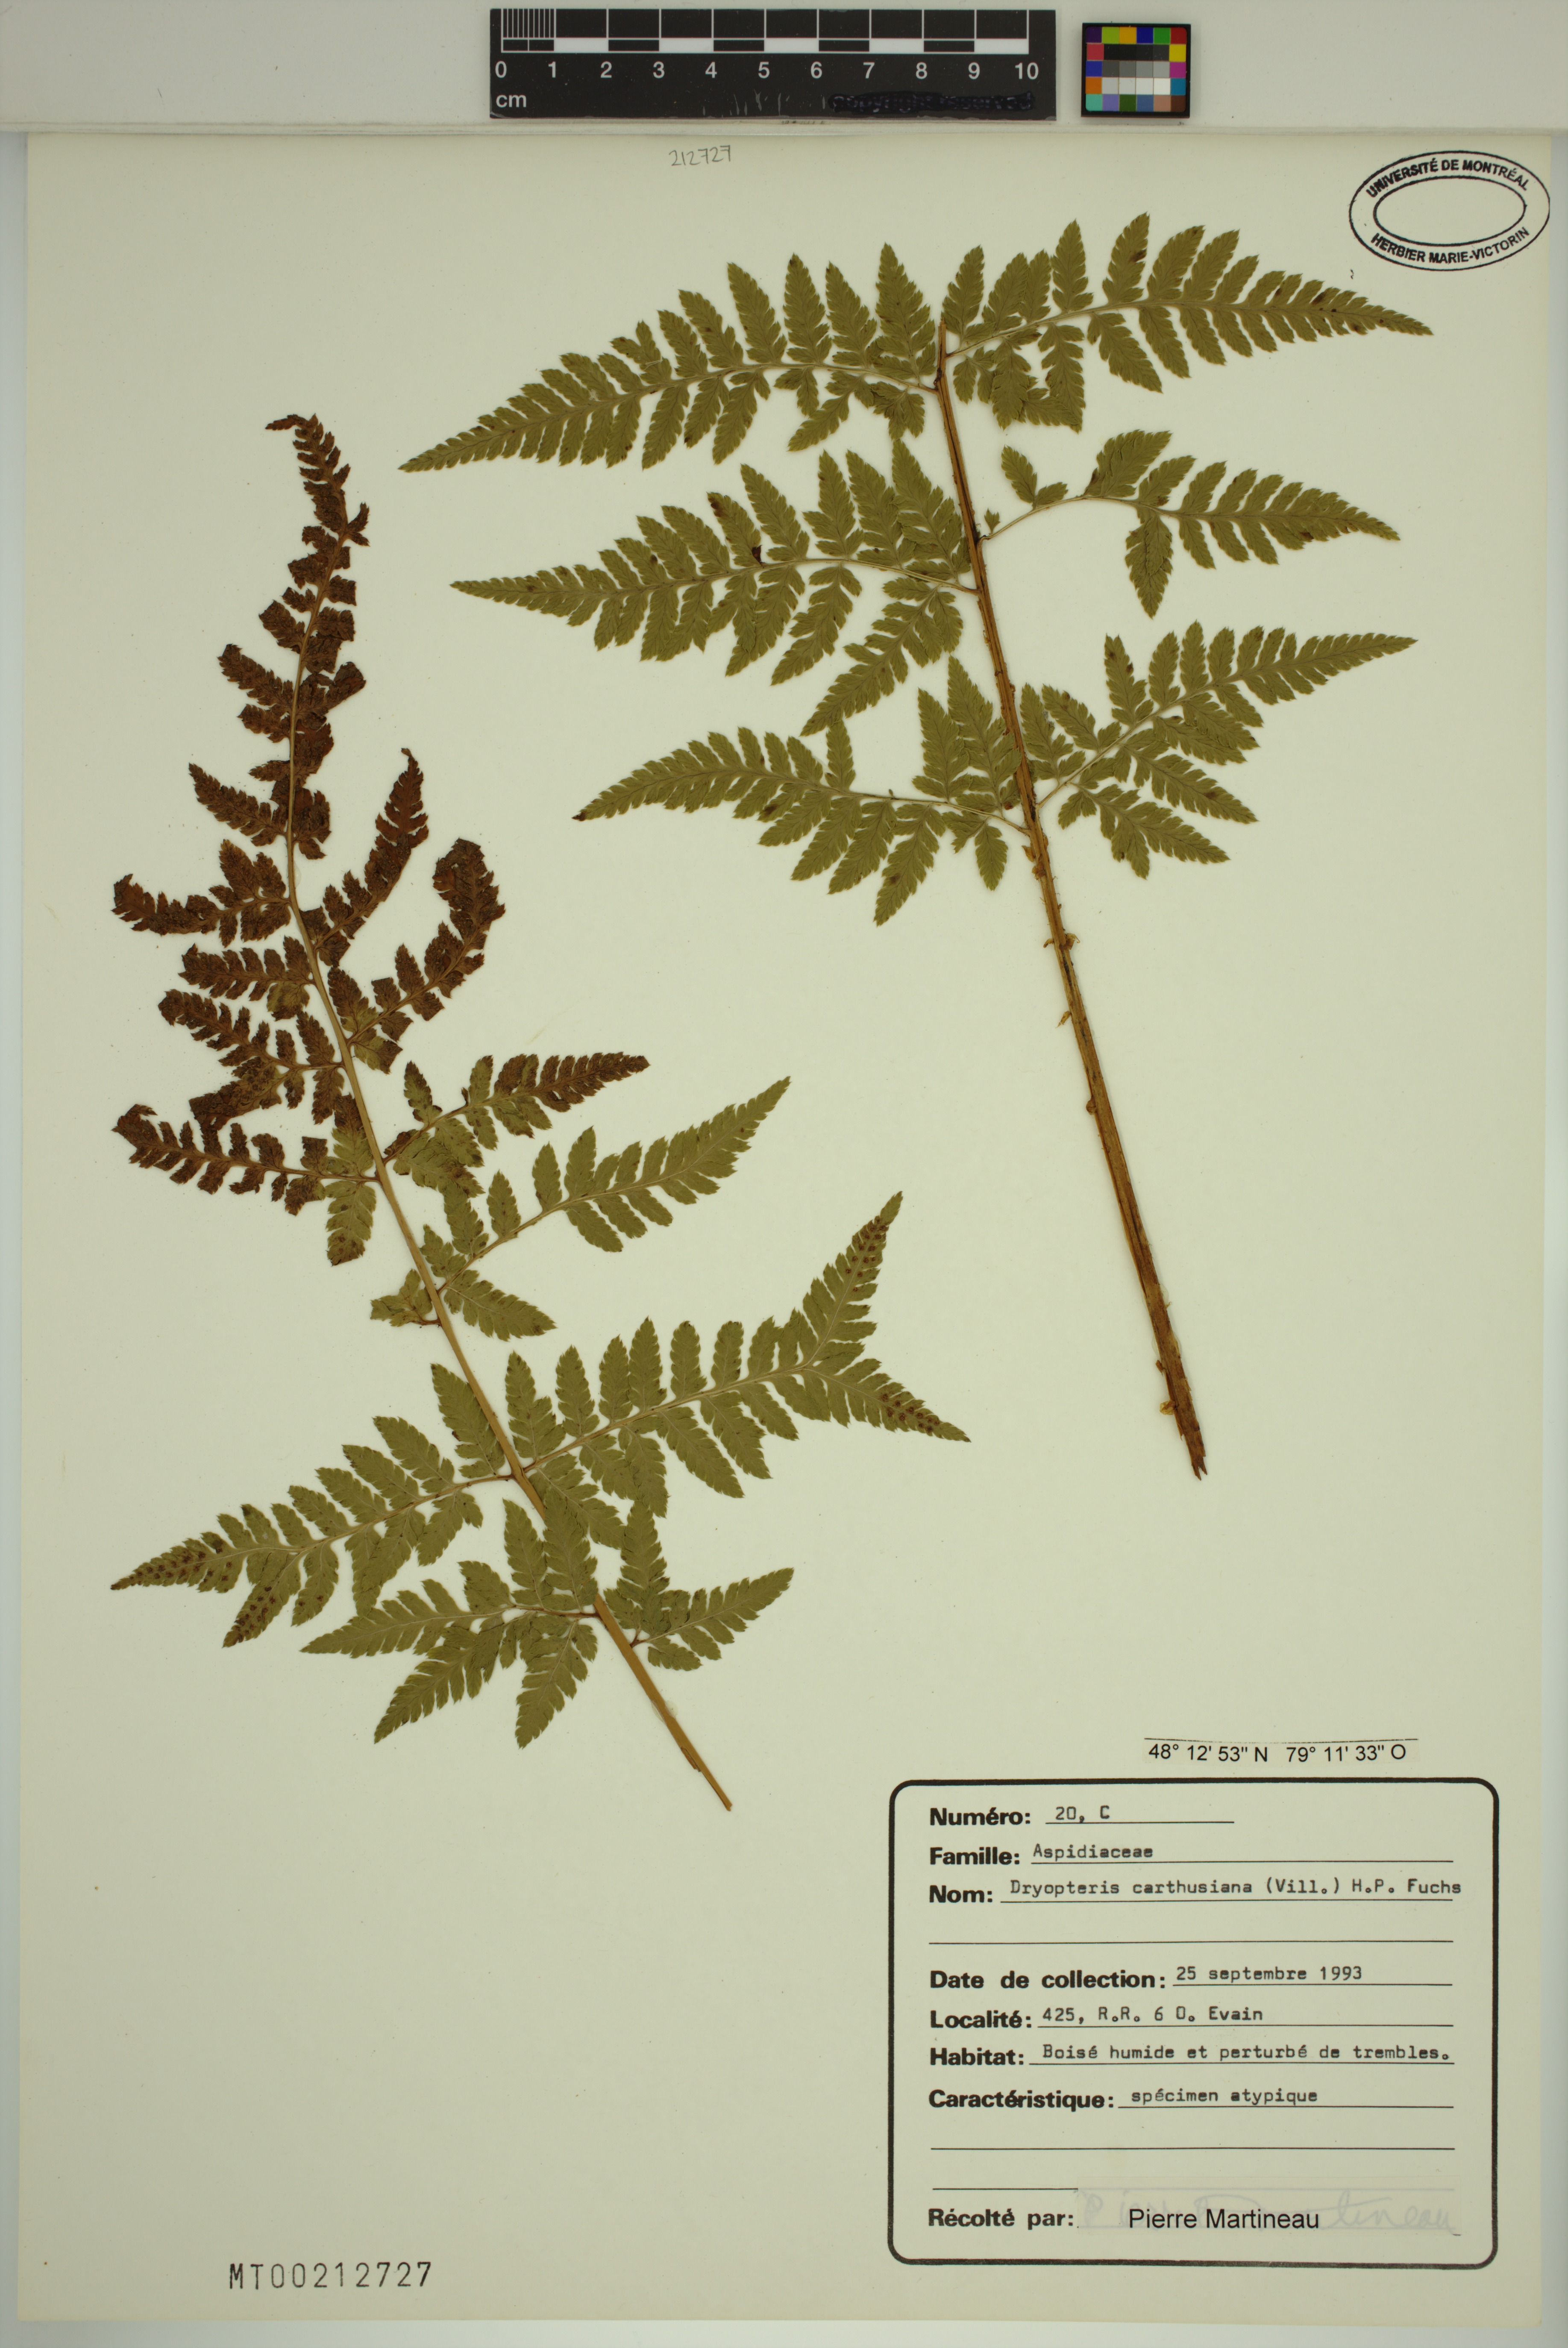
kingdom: Plantae
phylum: Tracheophyta
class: Polypodiopsida
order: Polypodiales
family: Dryopteridaceae
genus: Dryopteris
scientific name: Dryopteris carthusiana
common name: Narrow buckler-fern
